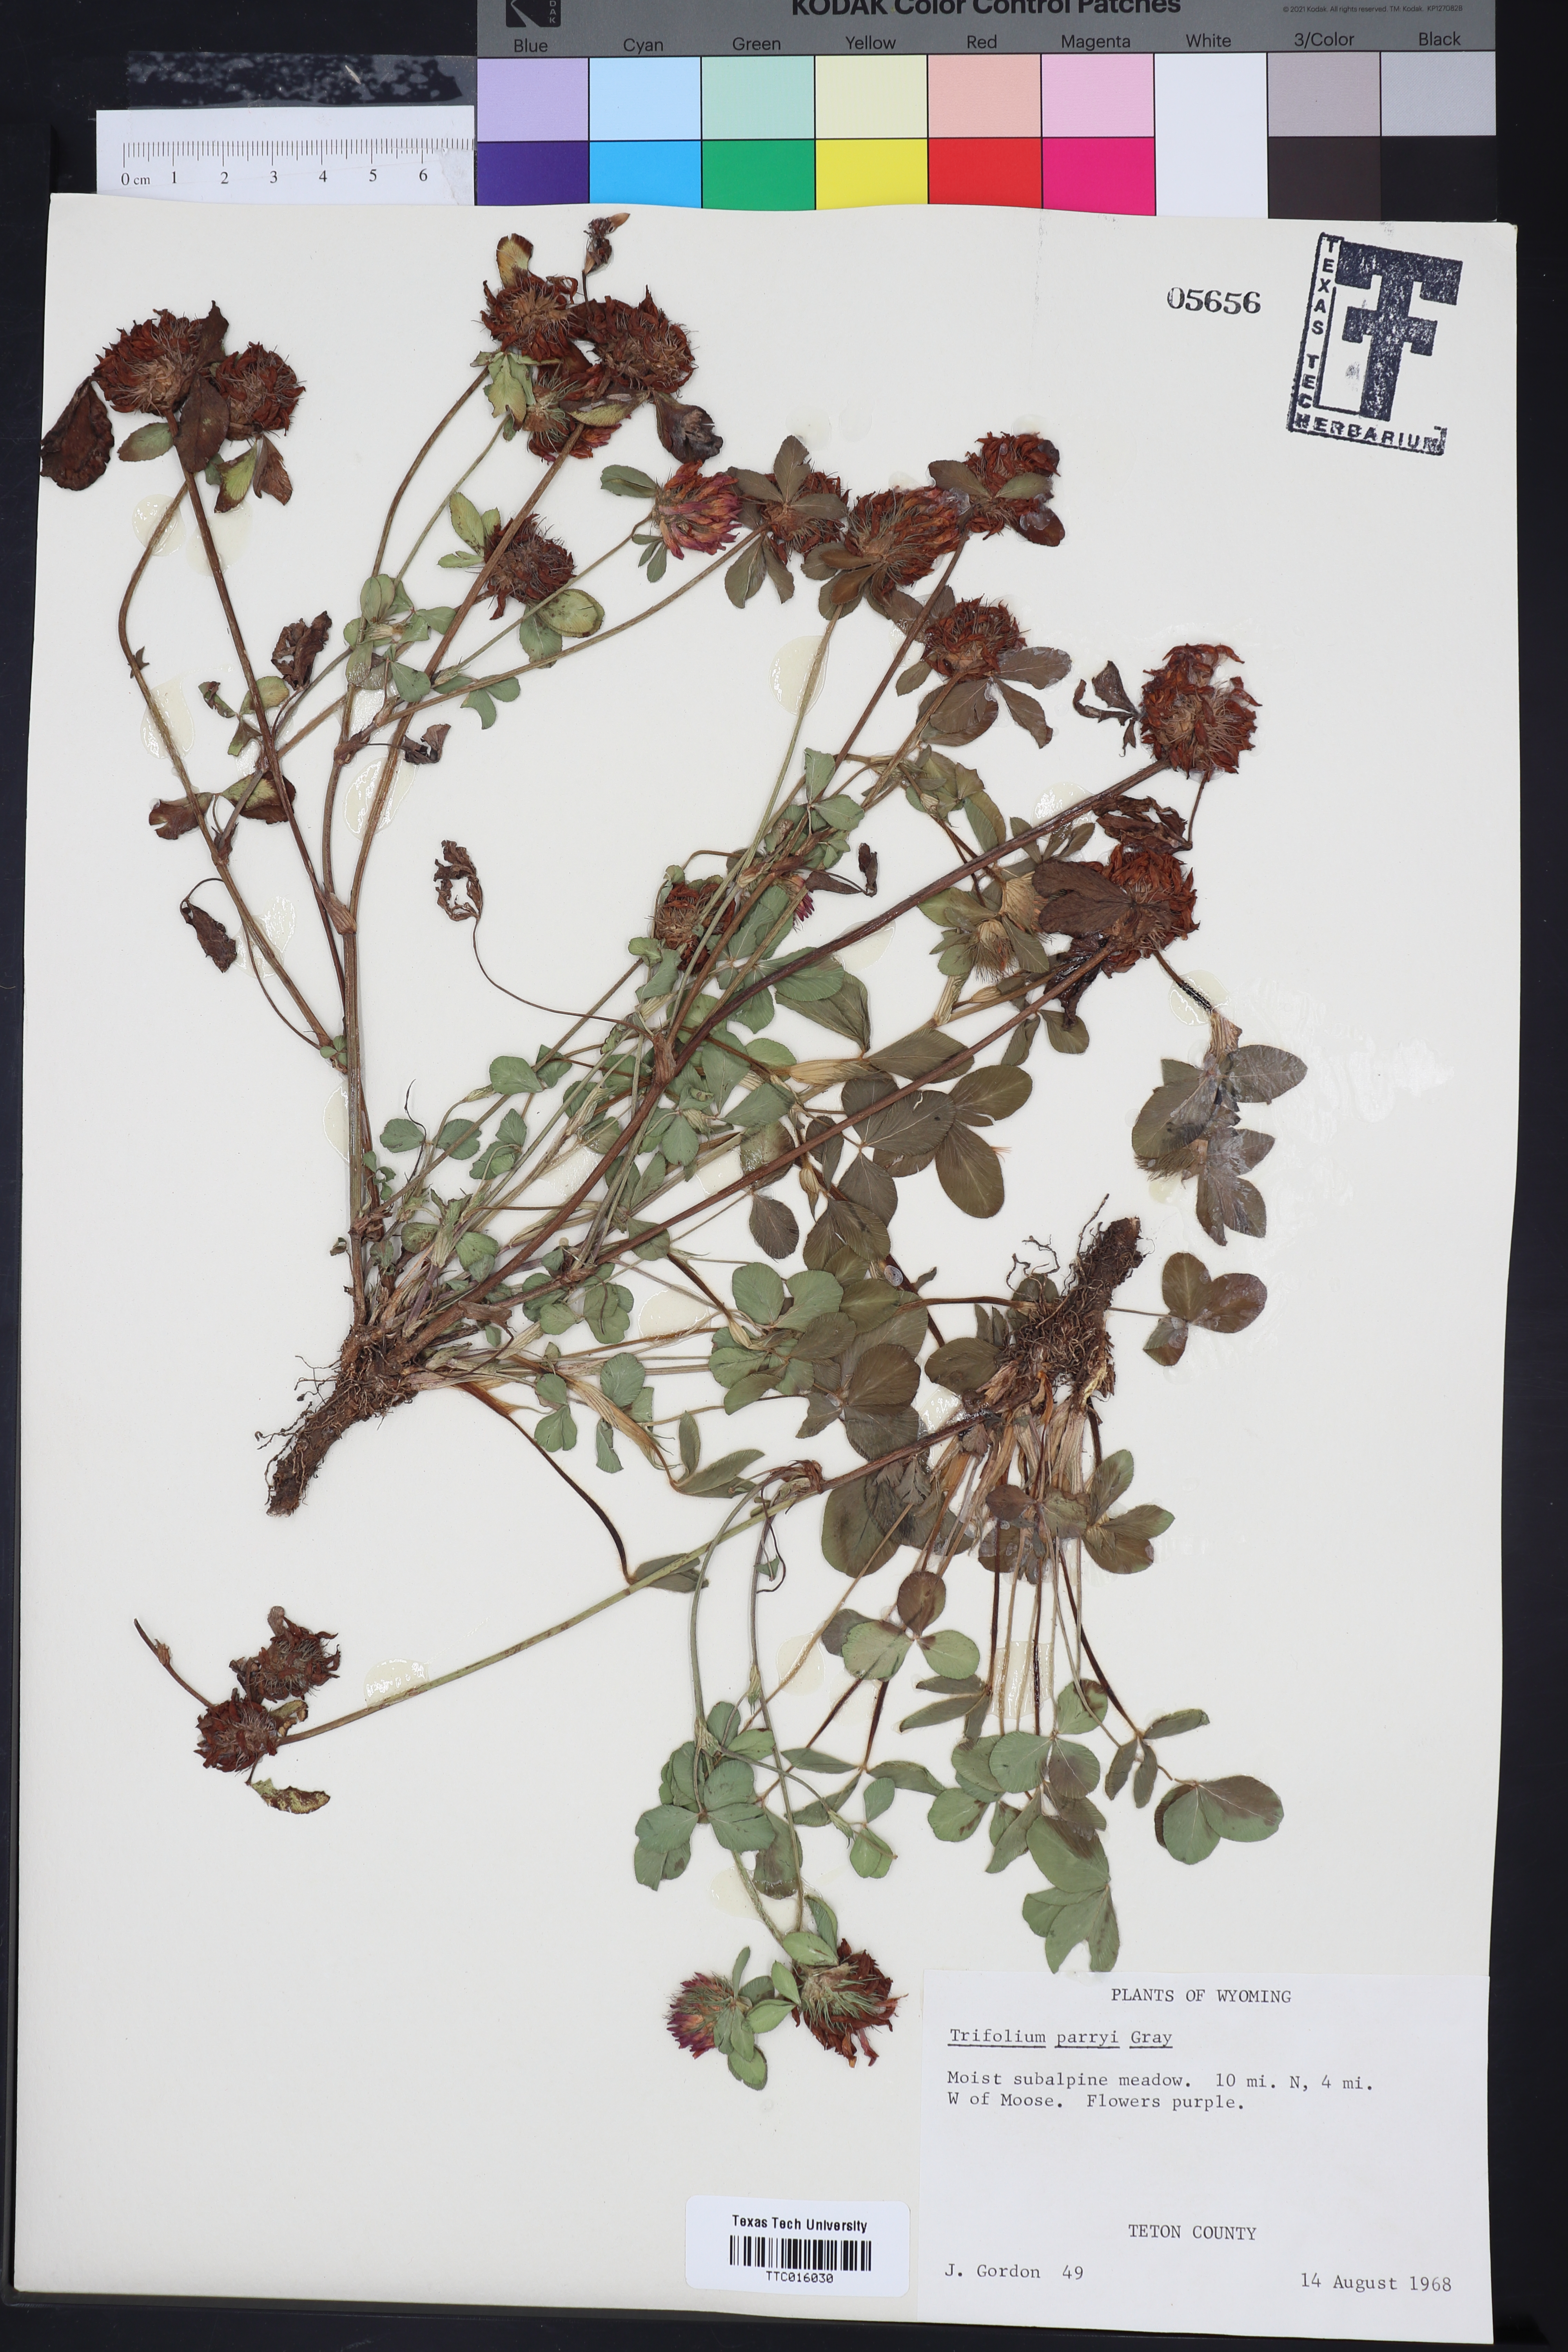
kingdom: Plantae
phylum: Tracheophyta
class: Magnoliopsida
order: Fabales
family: Fabaceae
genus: Trifolium
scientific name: Trifolium parryi
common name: Parry's clover
